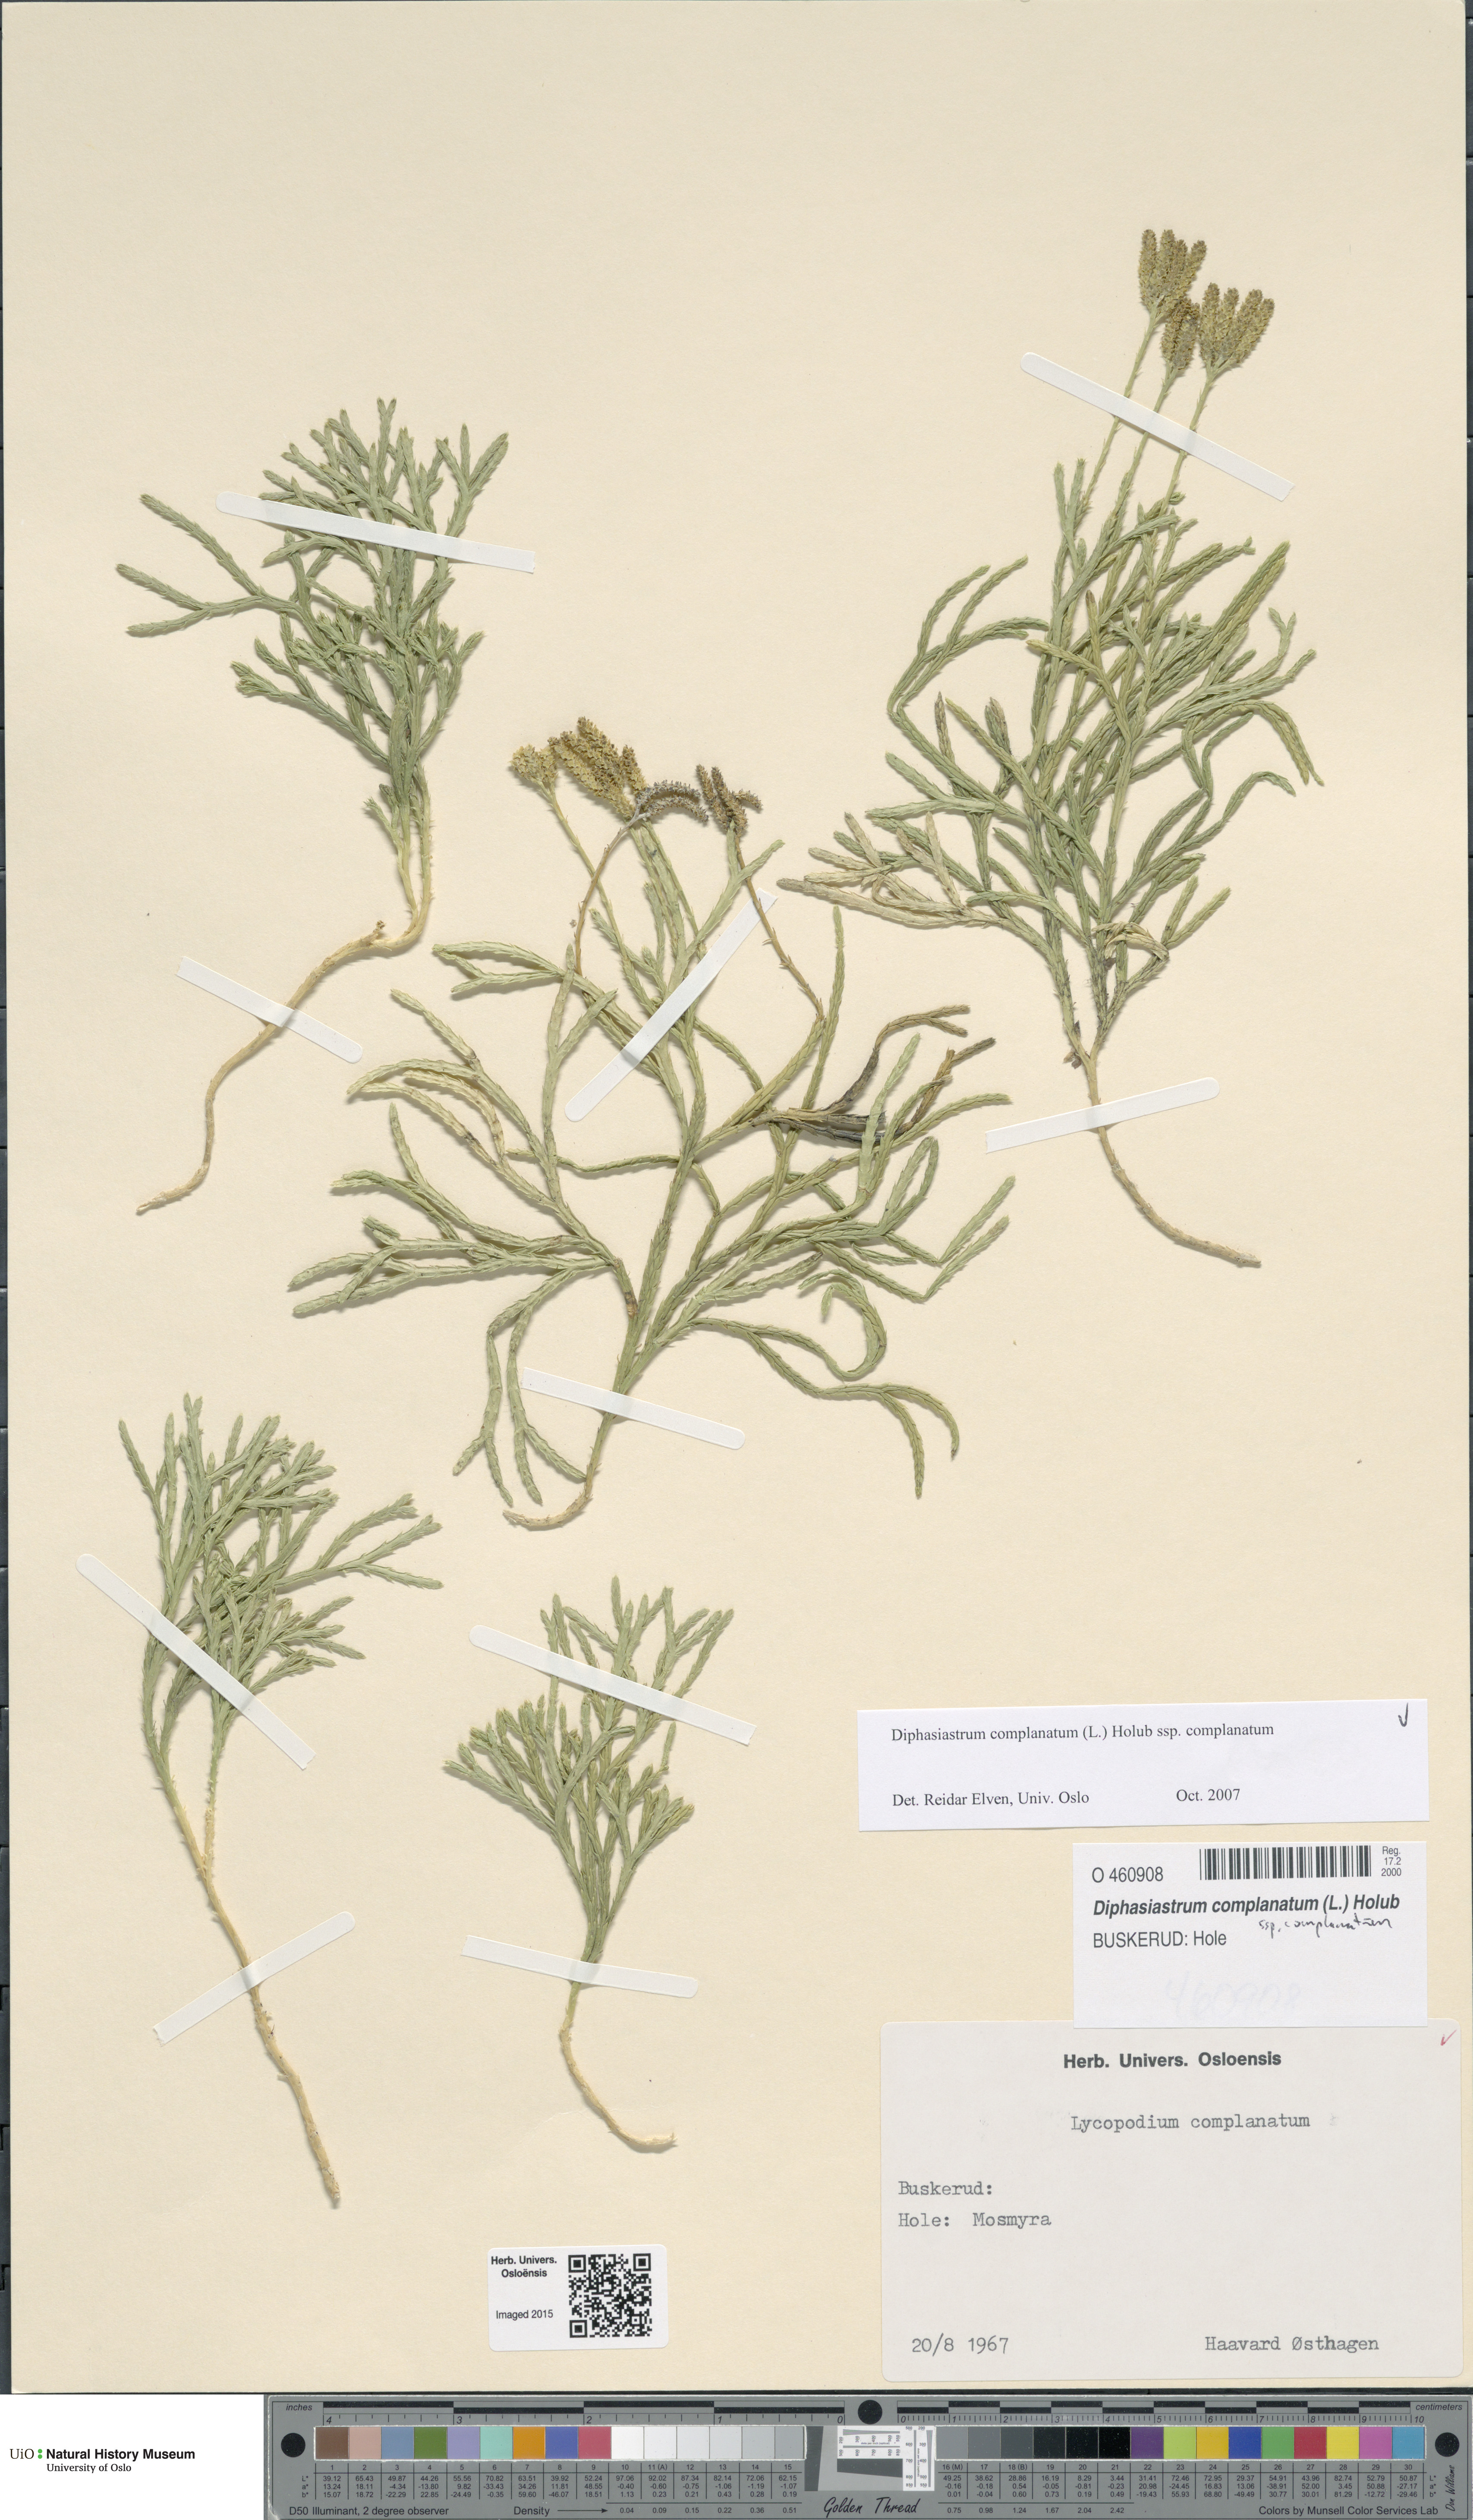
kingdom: Plantae
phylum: Tracheophyta
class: Lycopodiopsida
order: Lycopodiales
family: Lycopodiaceae
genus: Diphasiastrum
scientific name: Diphasiastrum complanatum
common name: Northern running-pine
